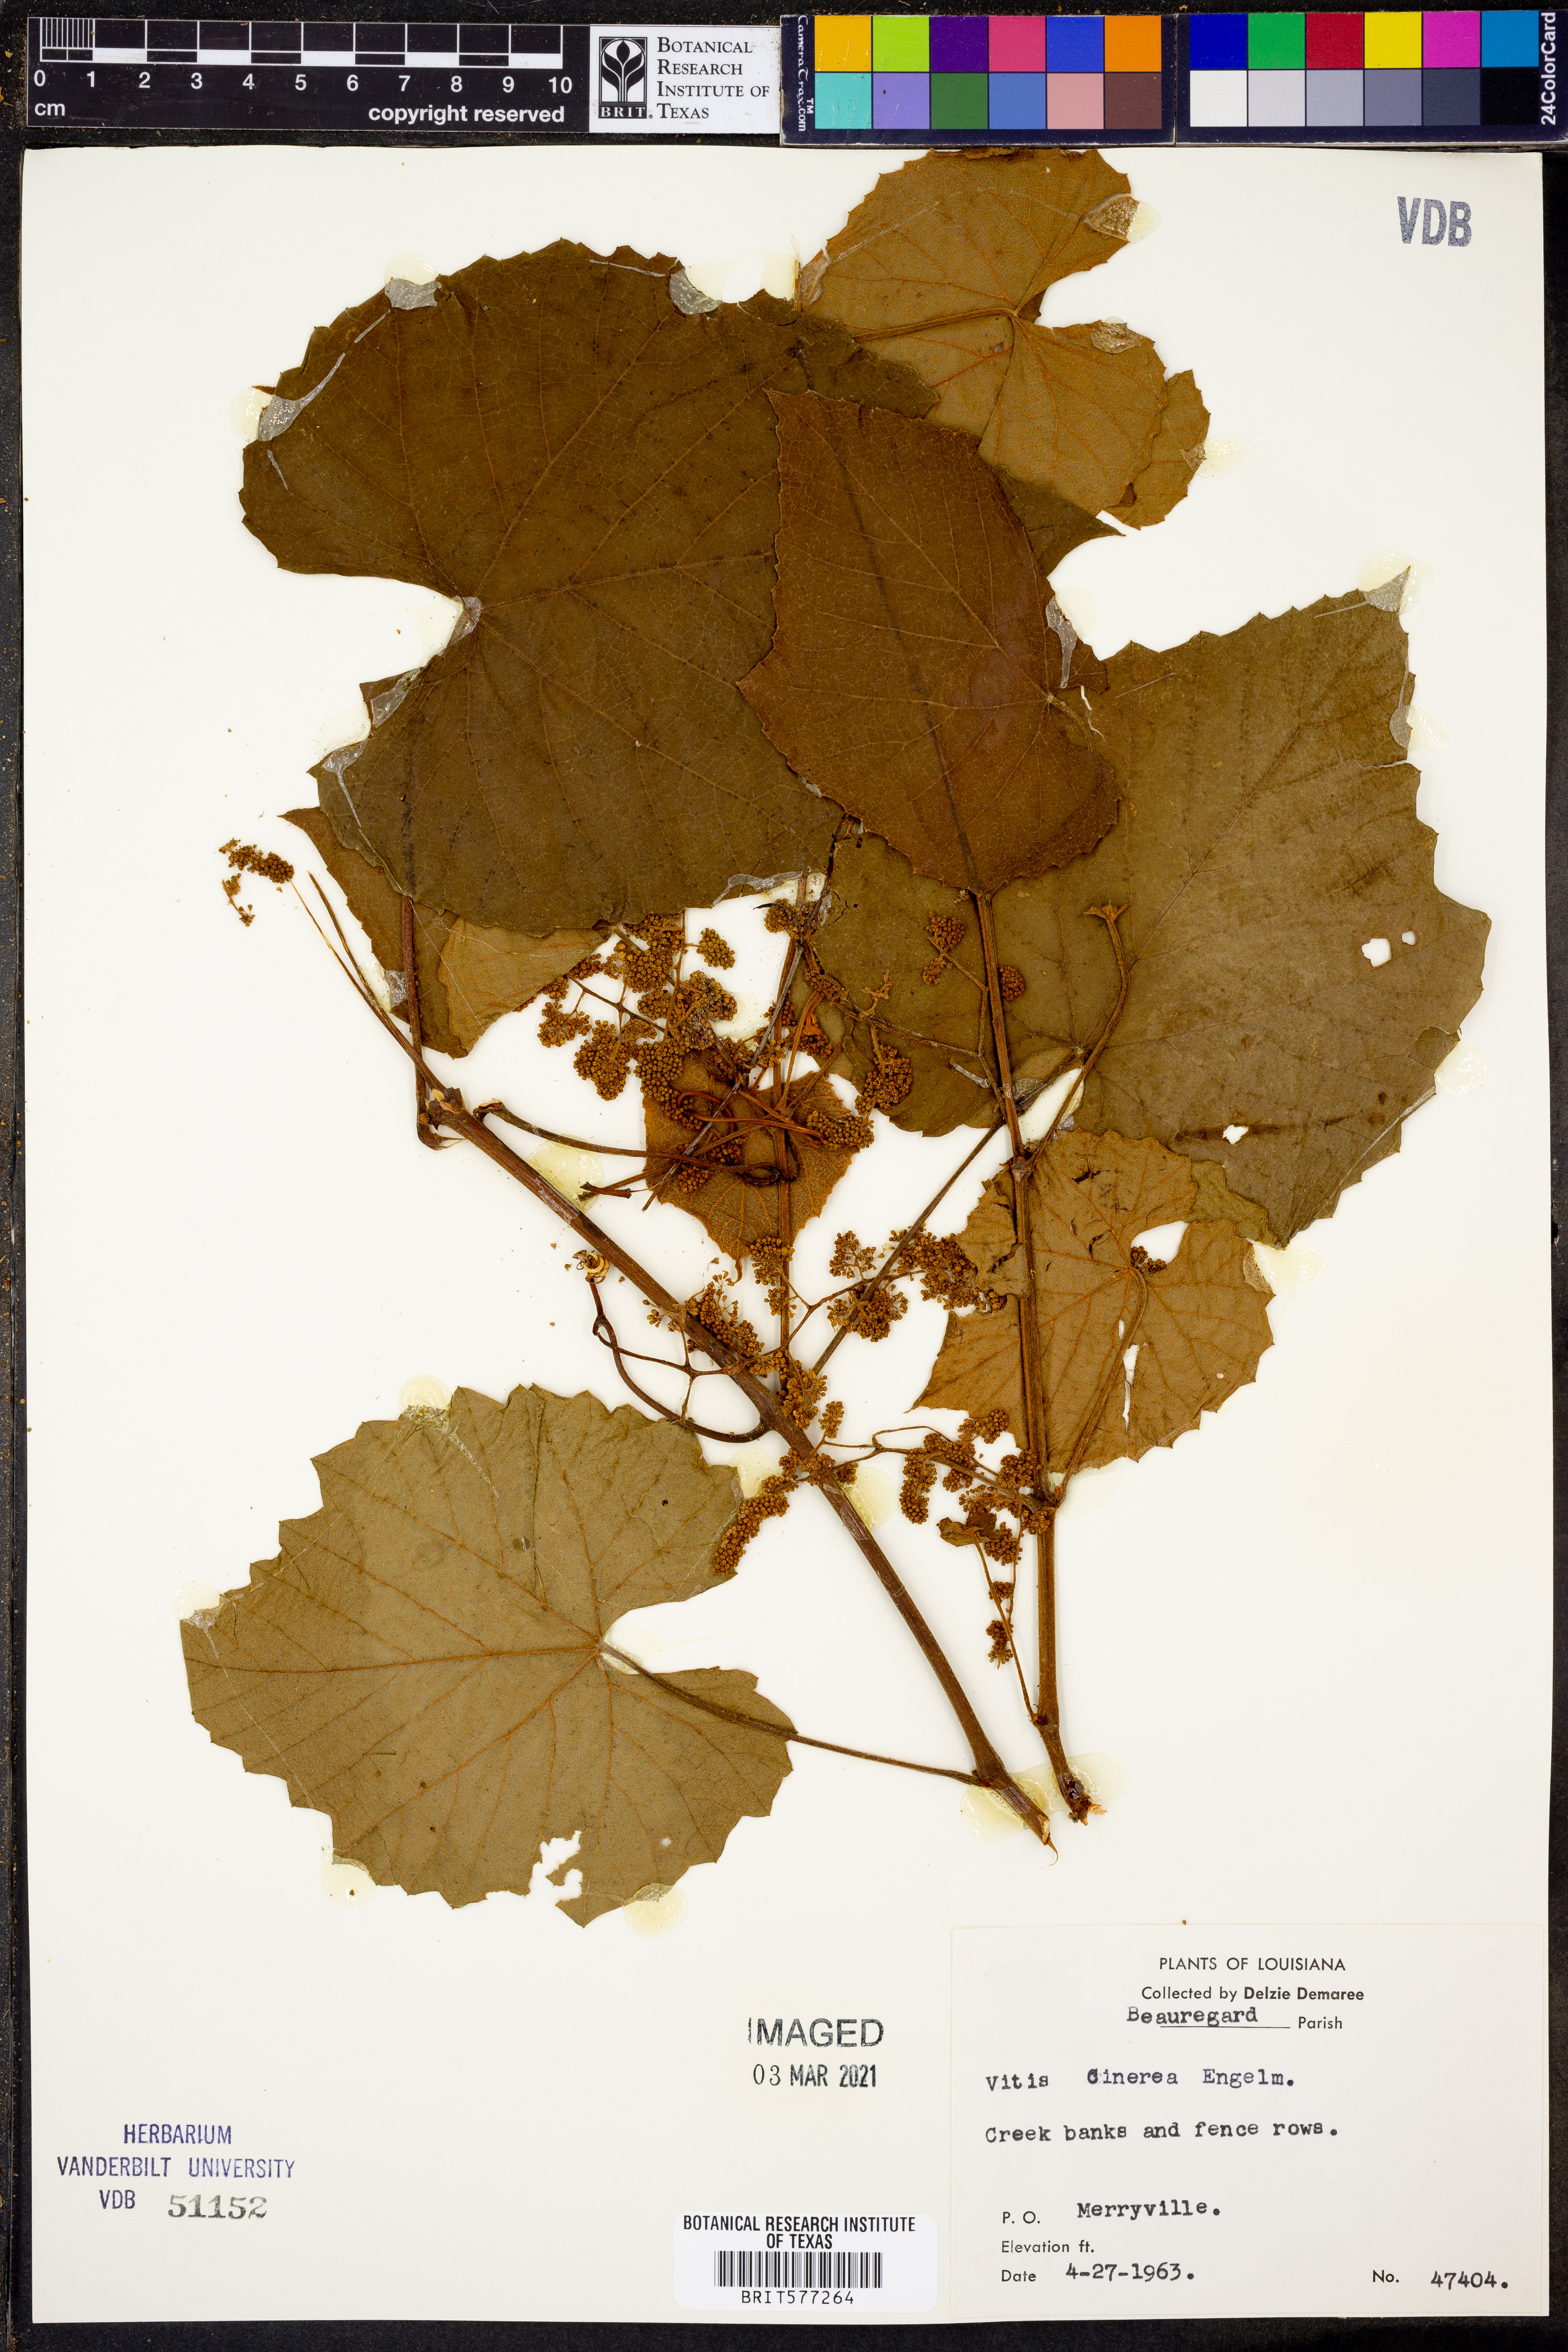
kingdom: Plantae
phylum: Tracheophyta
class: Magnoliopsida
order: Vitales
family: Vitaceae
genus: Vitis
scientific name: Vitis cinerea
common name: Ashy grape
